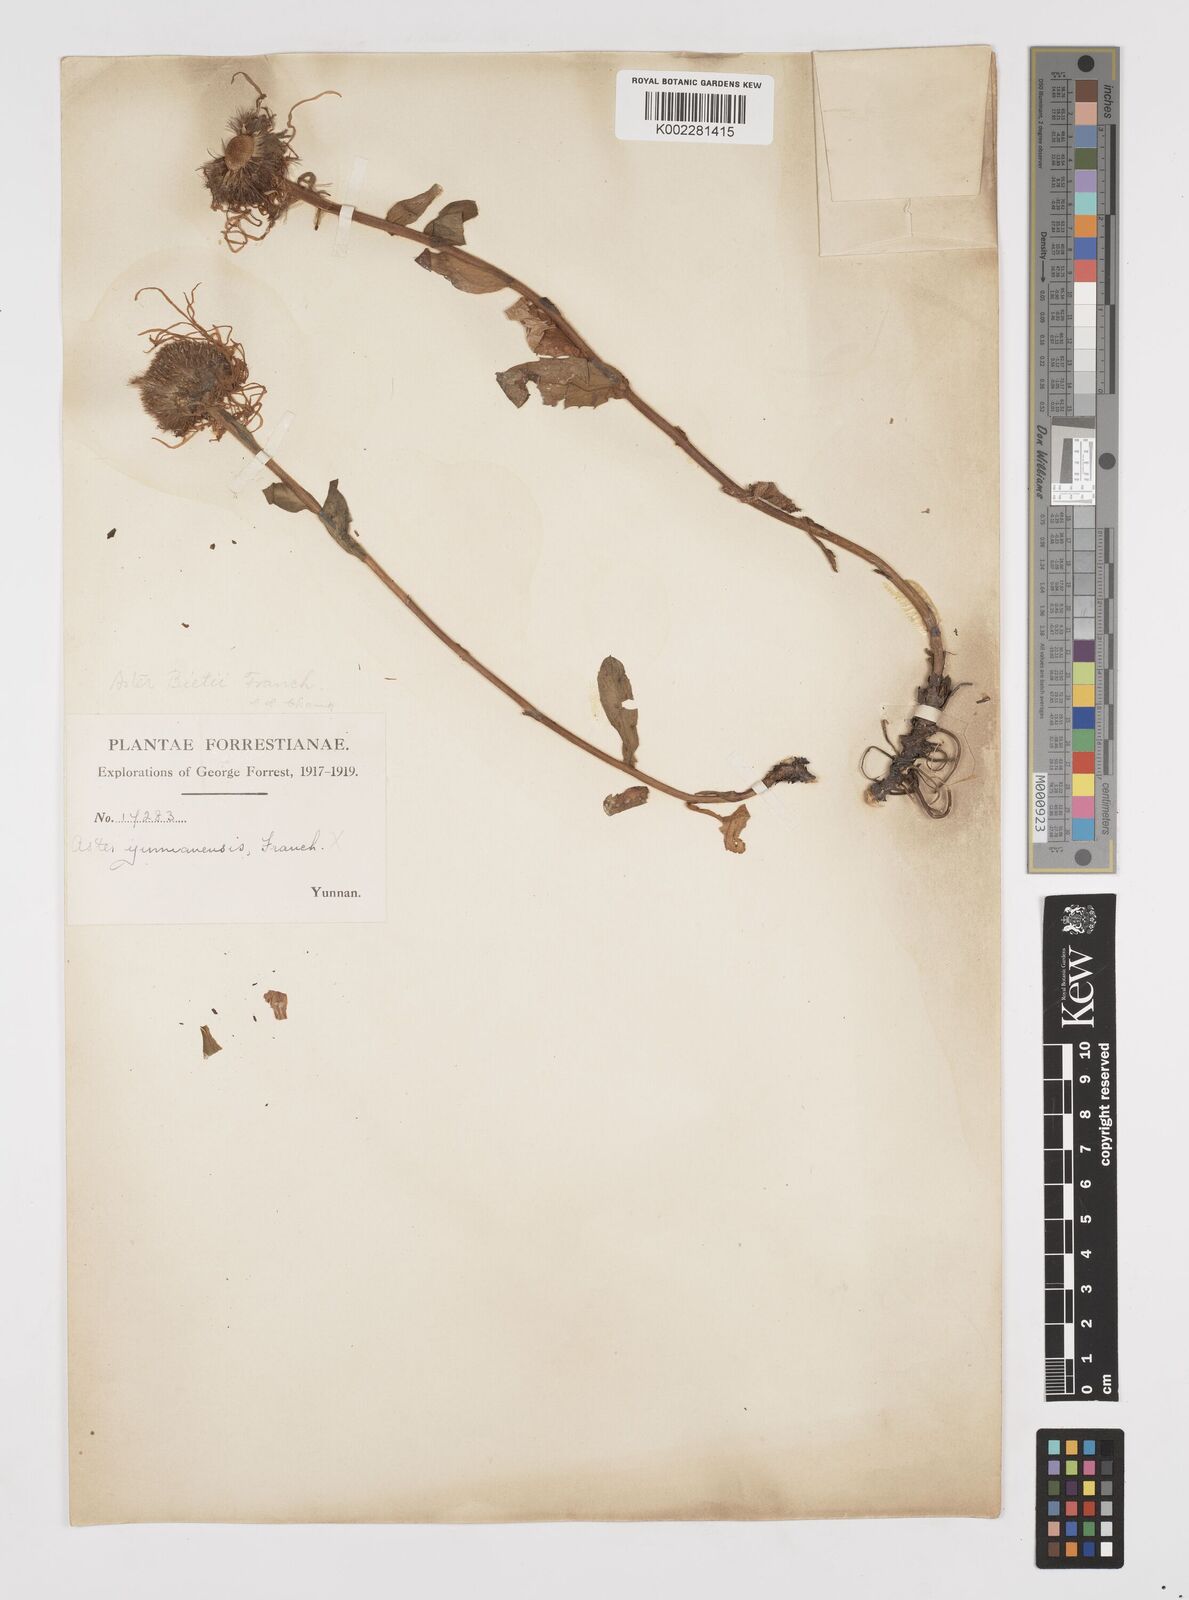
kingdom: Plantae
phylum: Tracheophyta
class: Magnoliopsida
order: Asterales
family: Asteraceae
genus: Tibetiodes
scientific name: Tibetiodes bietii
